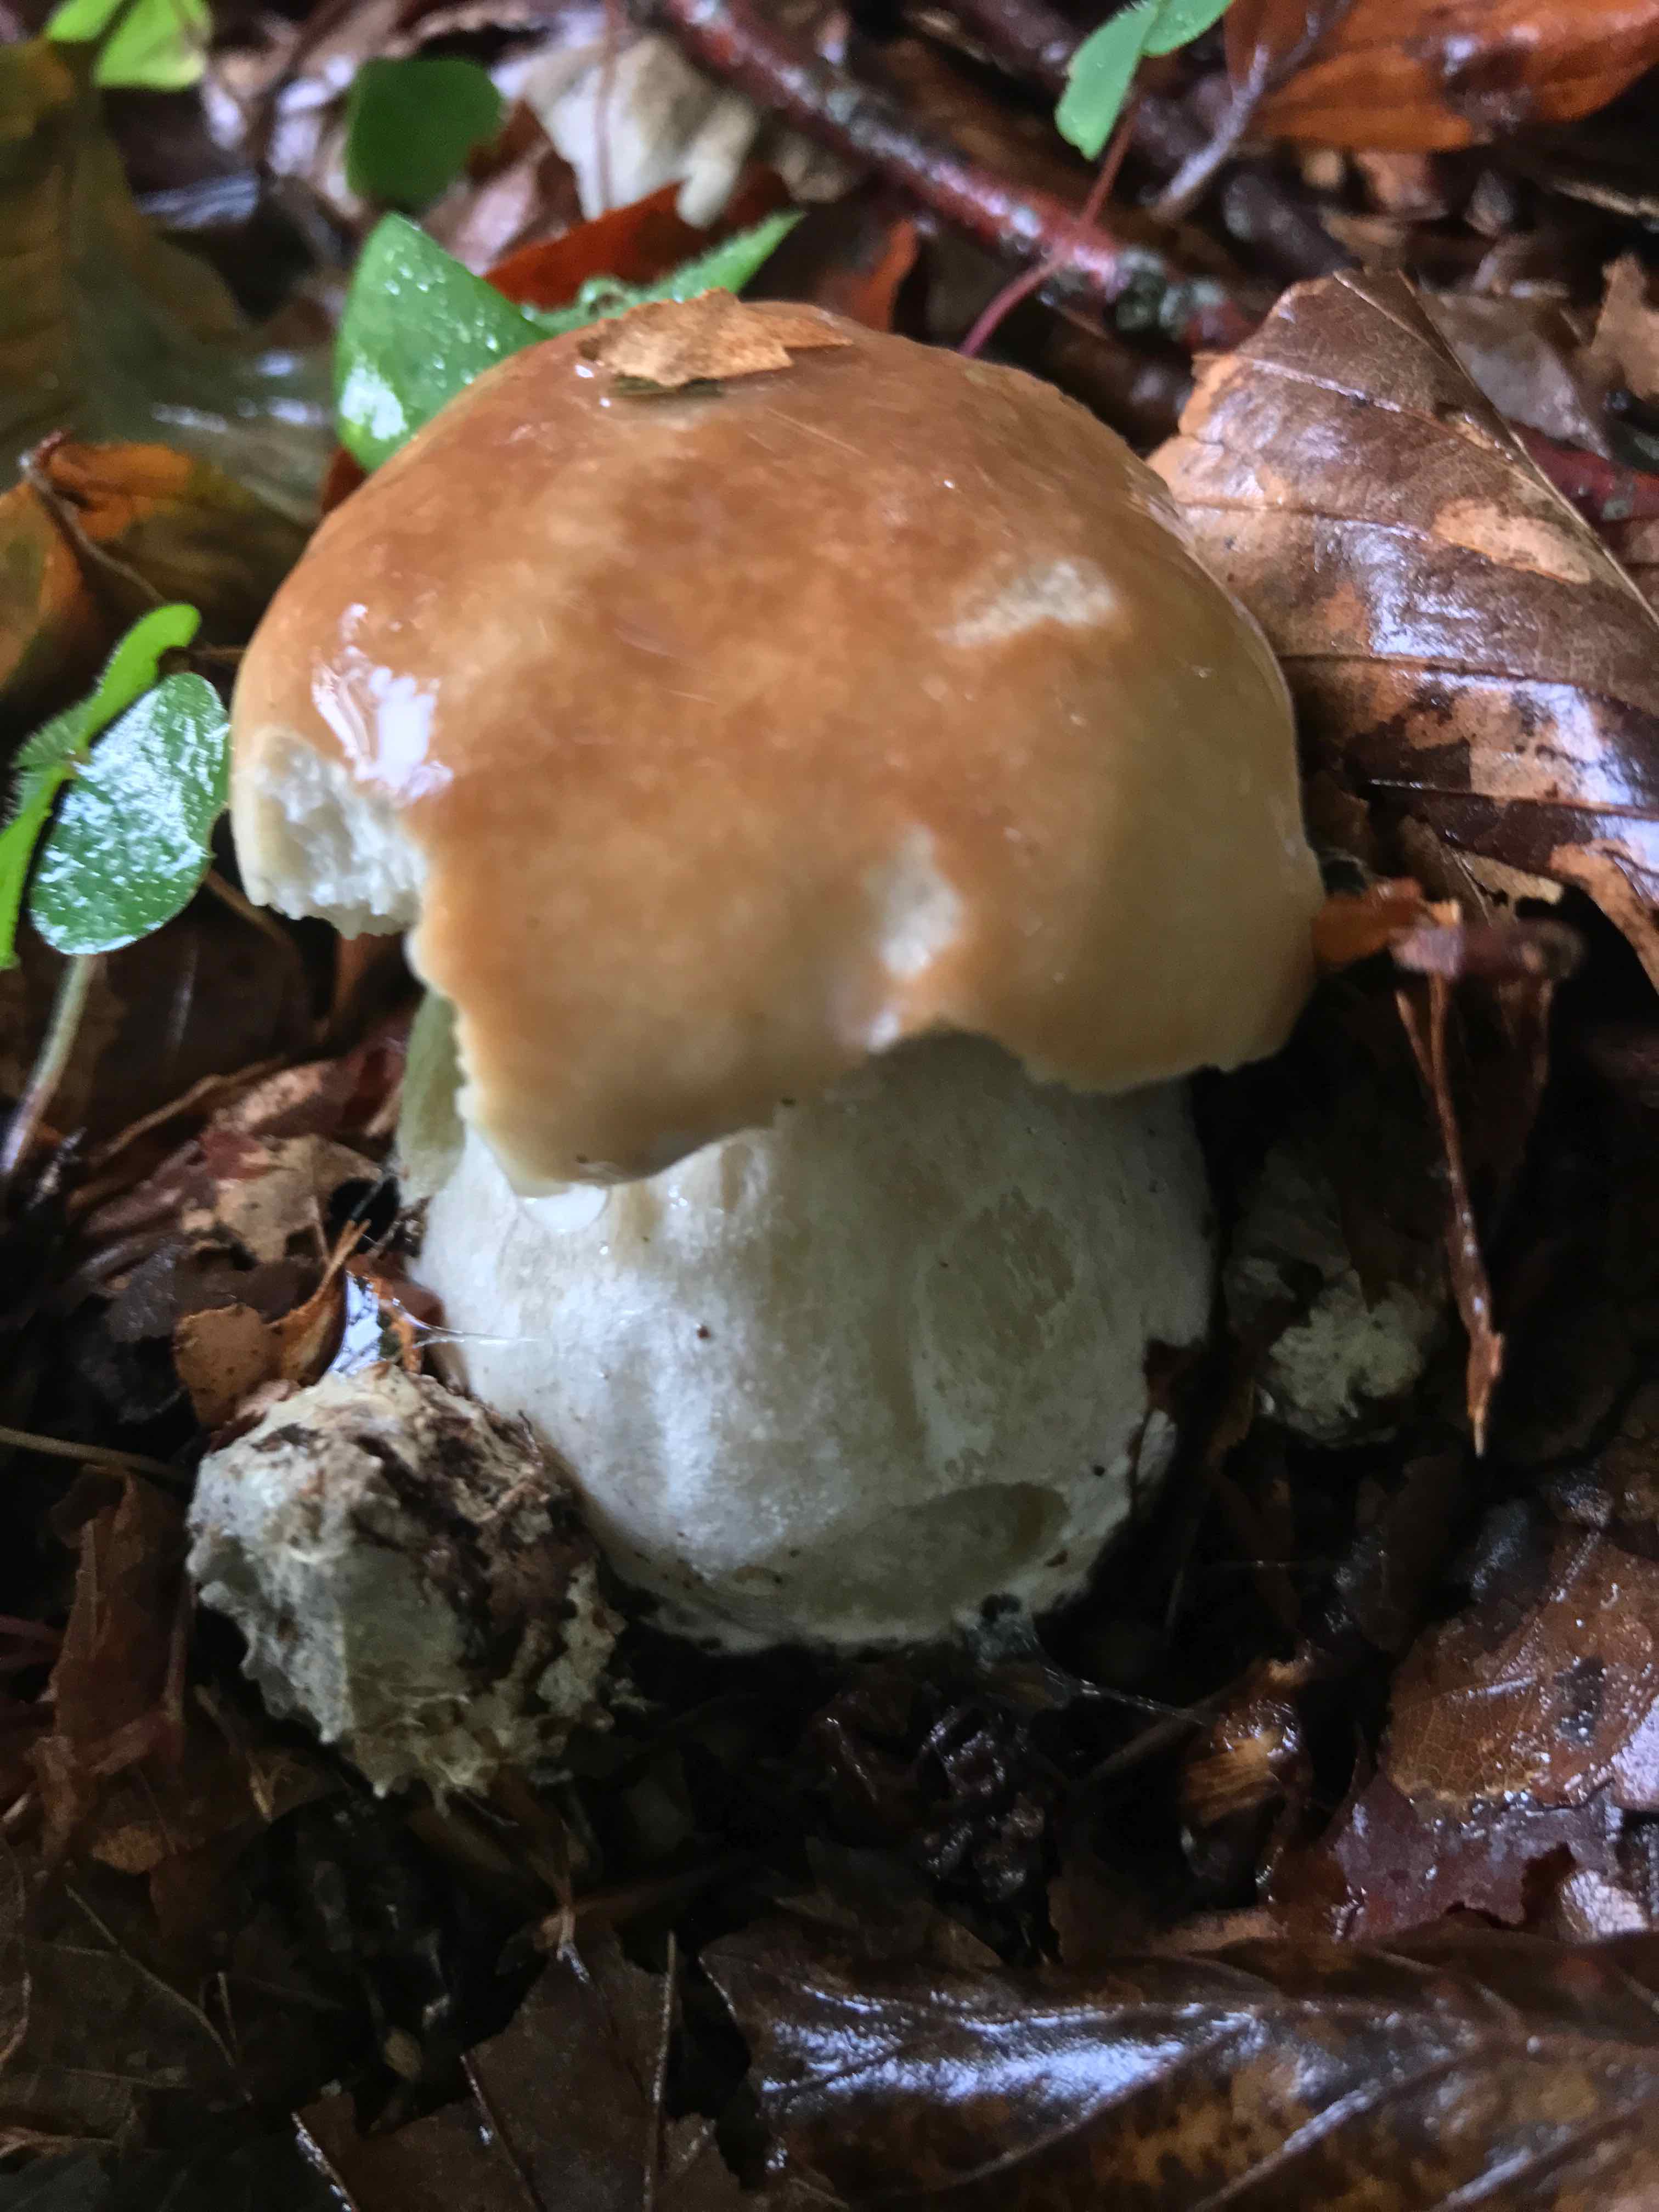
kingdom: Fungi
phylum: Basidiomycota
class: Agaricomycetes
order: Boletales
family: Boletaceae
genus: Boletus
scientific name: Boletus edulis
